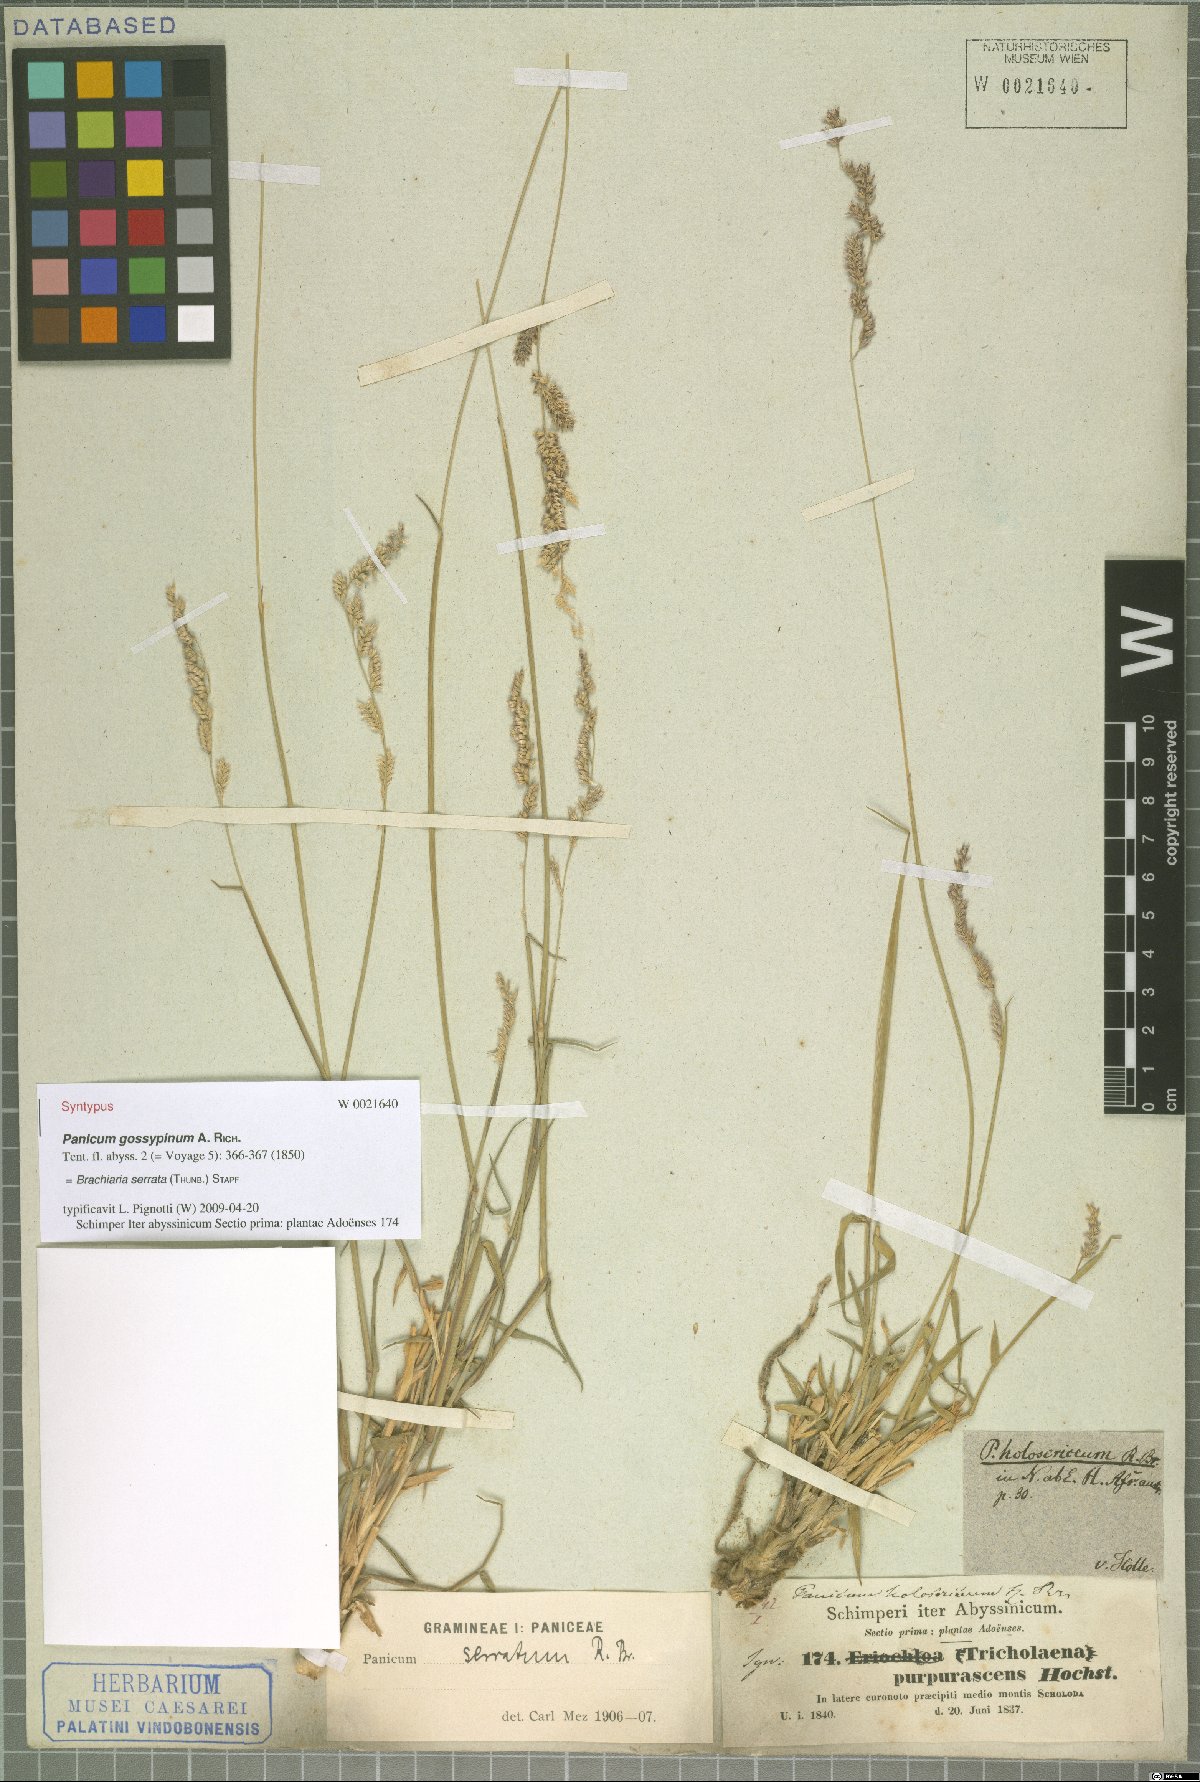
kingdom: Plantae
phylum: Tracheophyta
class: Liliopsida
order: Poales
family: Poaceae
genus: Urochloa
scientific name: Urochloa serrata
